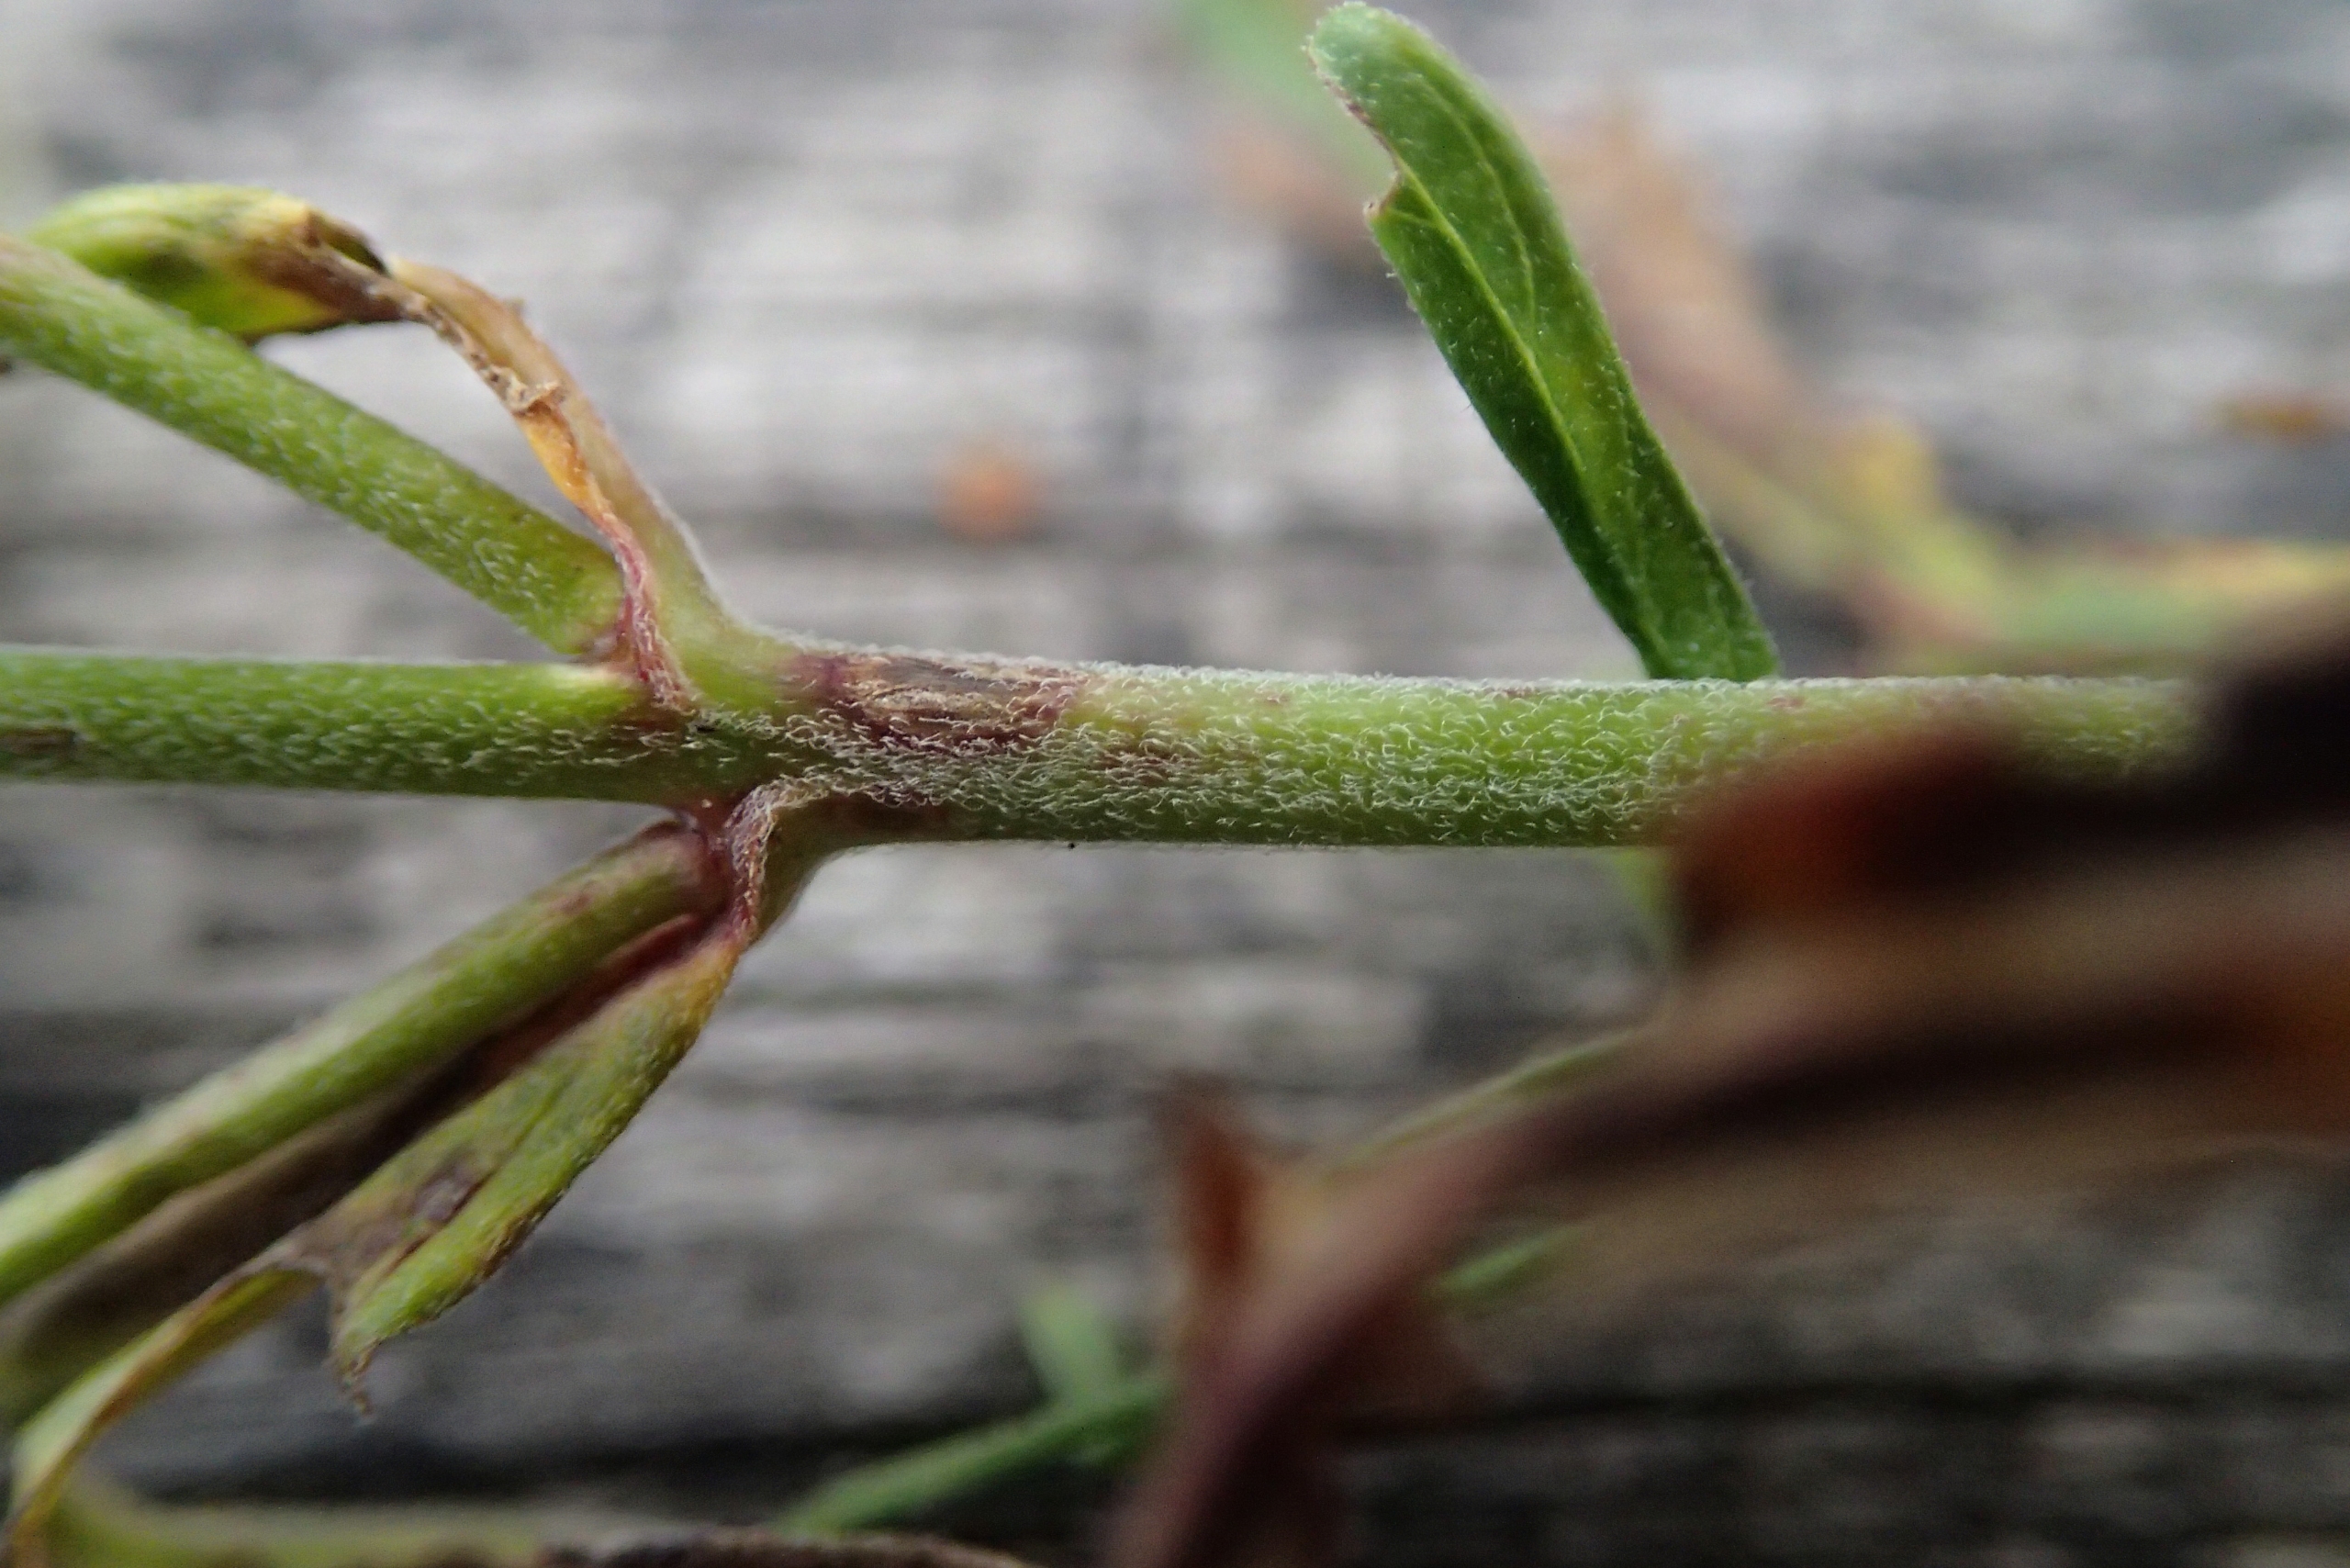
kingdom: Plantae
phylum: Tracheophyta
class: Magnoliopsida
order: Myrtales
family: Onagraceae
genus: Epilobium
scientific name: Epilobium palustre
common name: Kær-dueurt
